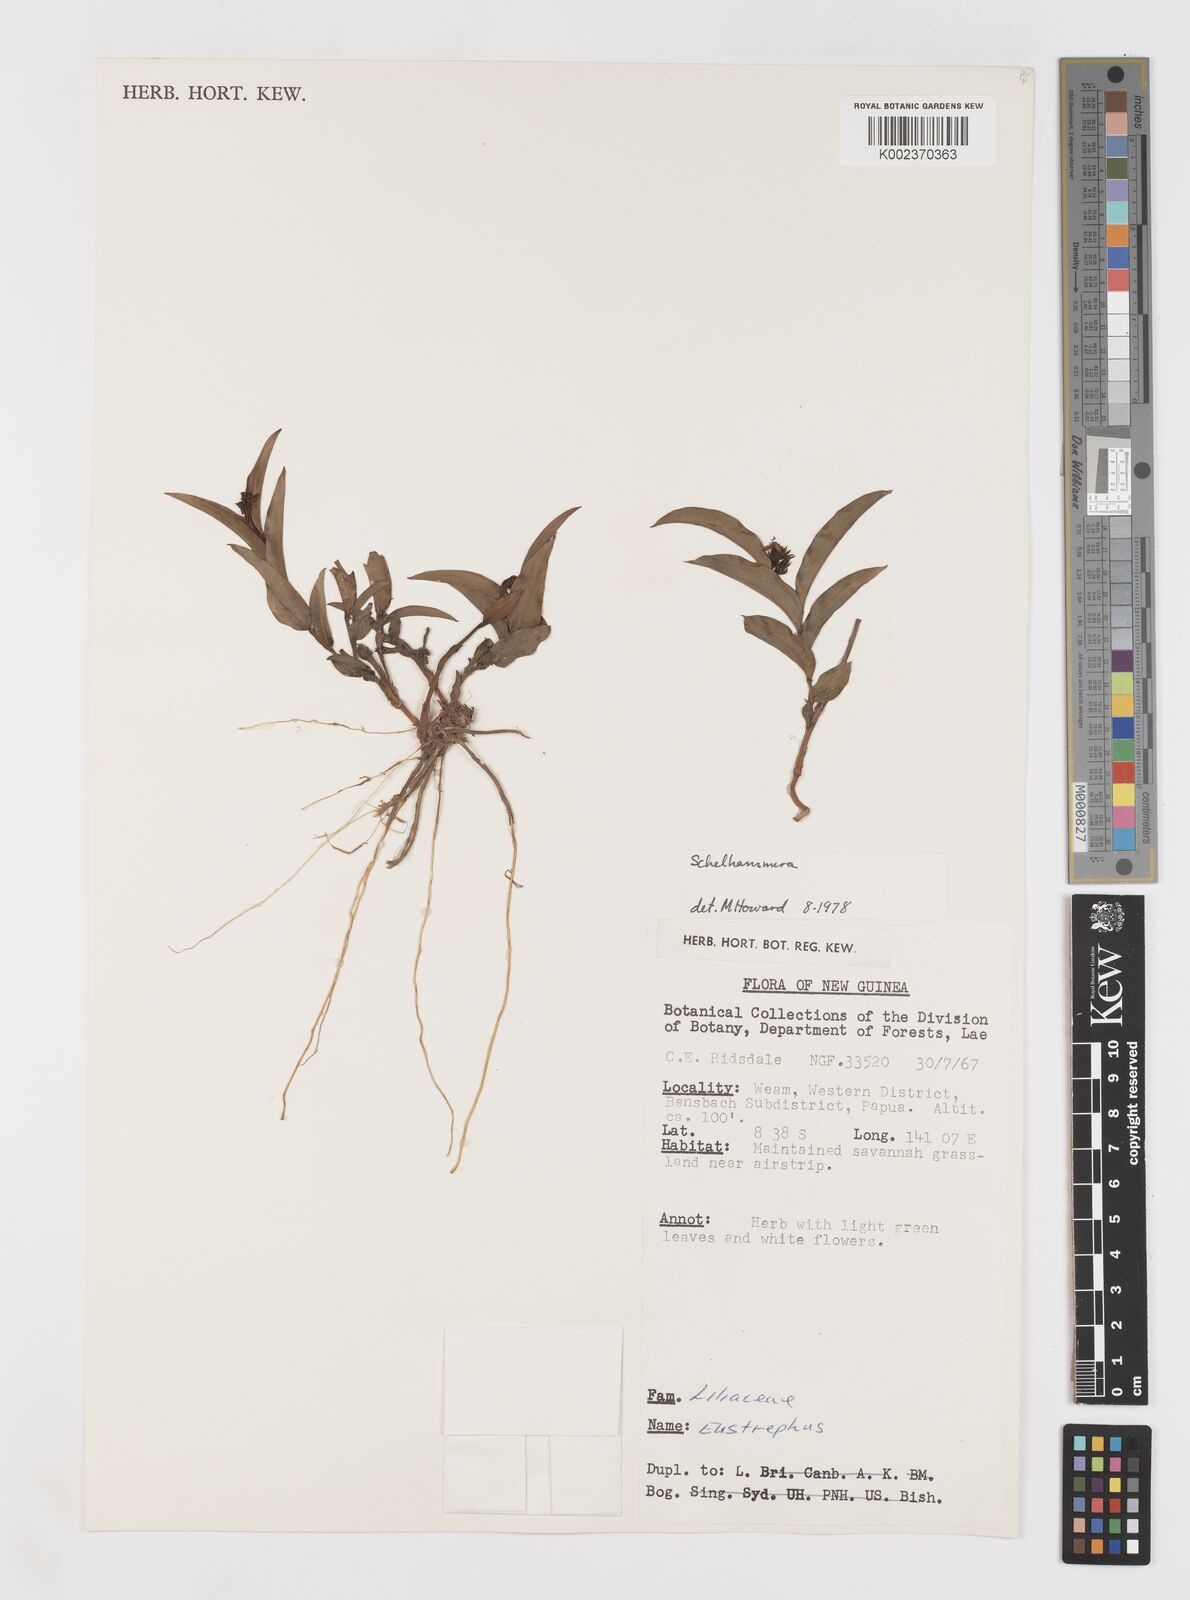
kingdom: Plantae
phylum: Tracheophyta
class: Liliopsida
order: Liliales
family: Colchicaceae
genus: Schelhammera
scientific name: Schelhammera
